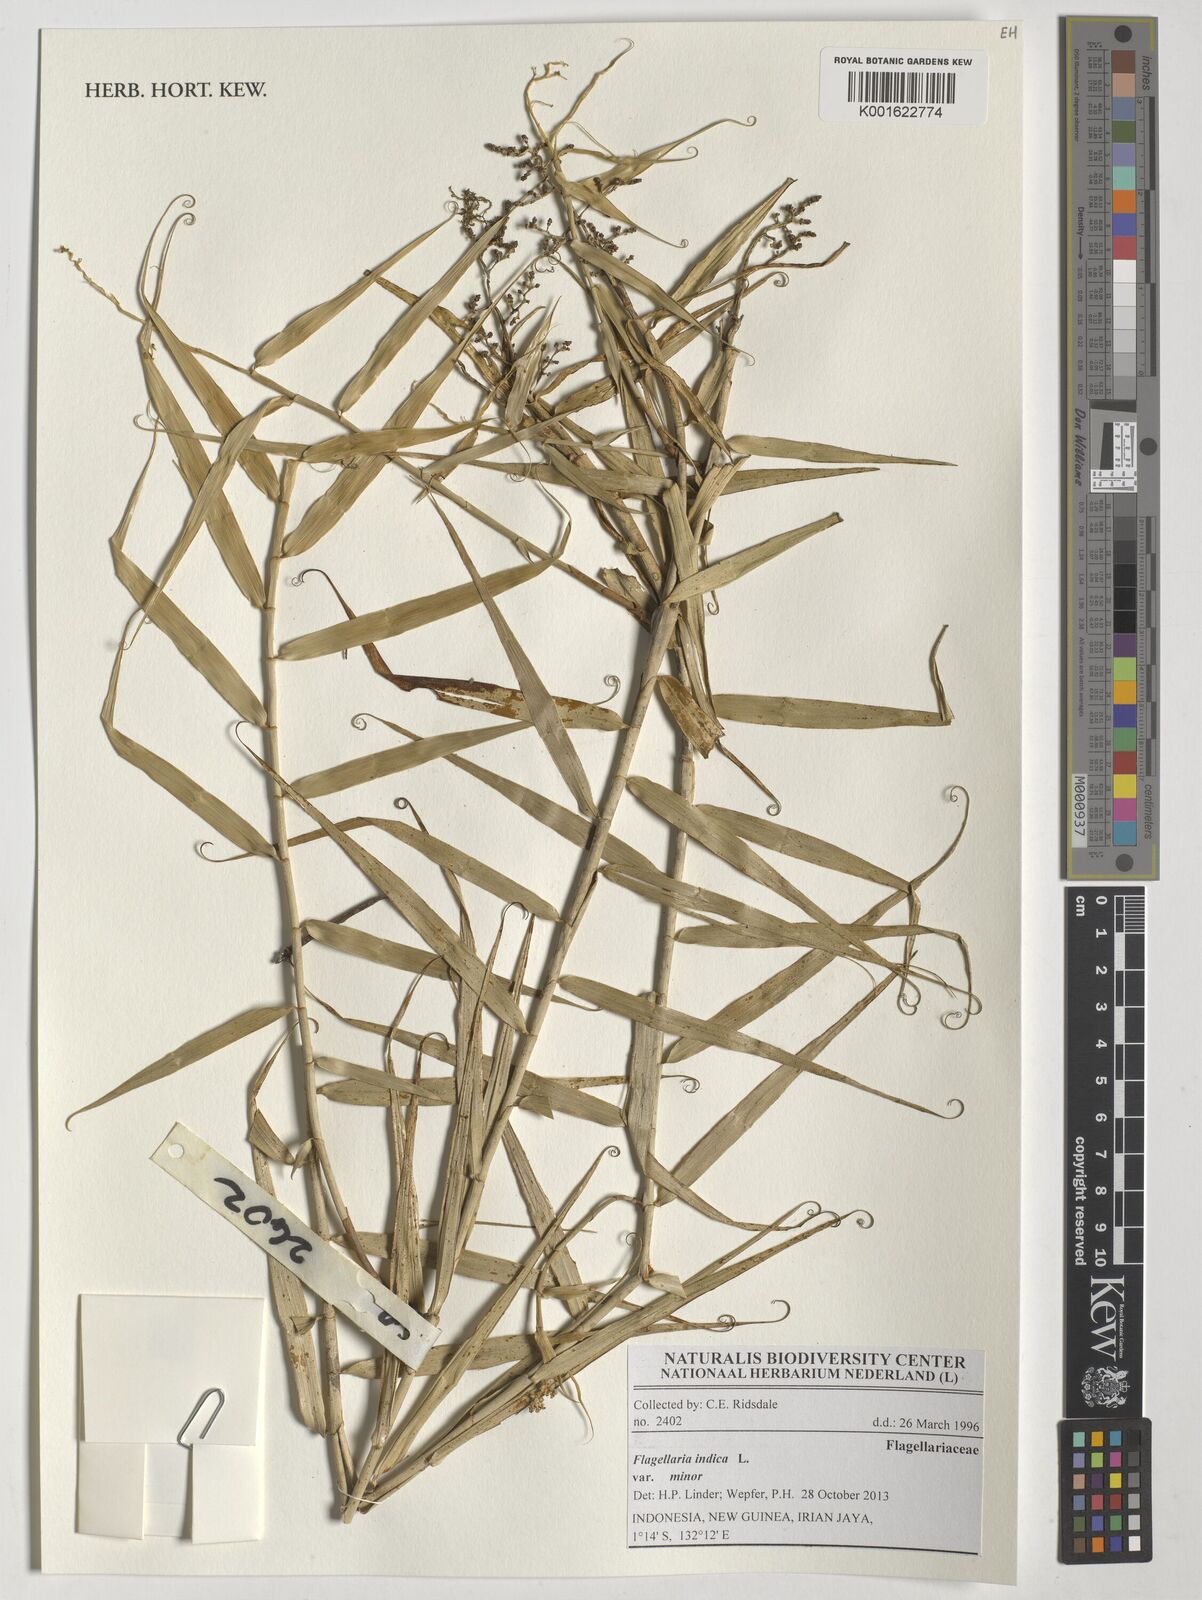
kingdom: Plantae
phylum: Tracheophyta
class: Liliopsida
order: Poales
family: Flagellariaceae
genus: Flagellaria
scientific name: Flagellaria indica
